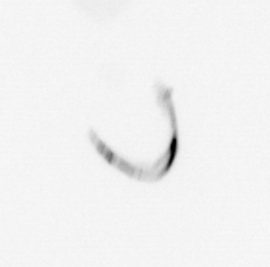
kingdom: Chromista
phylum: Ochrophyta
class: Bacillariophyceae
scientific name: Bacillariophyceae
